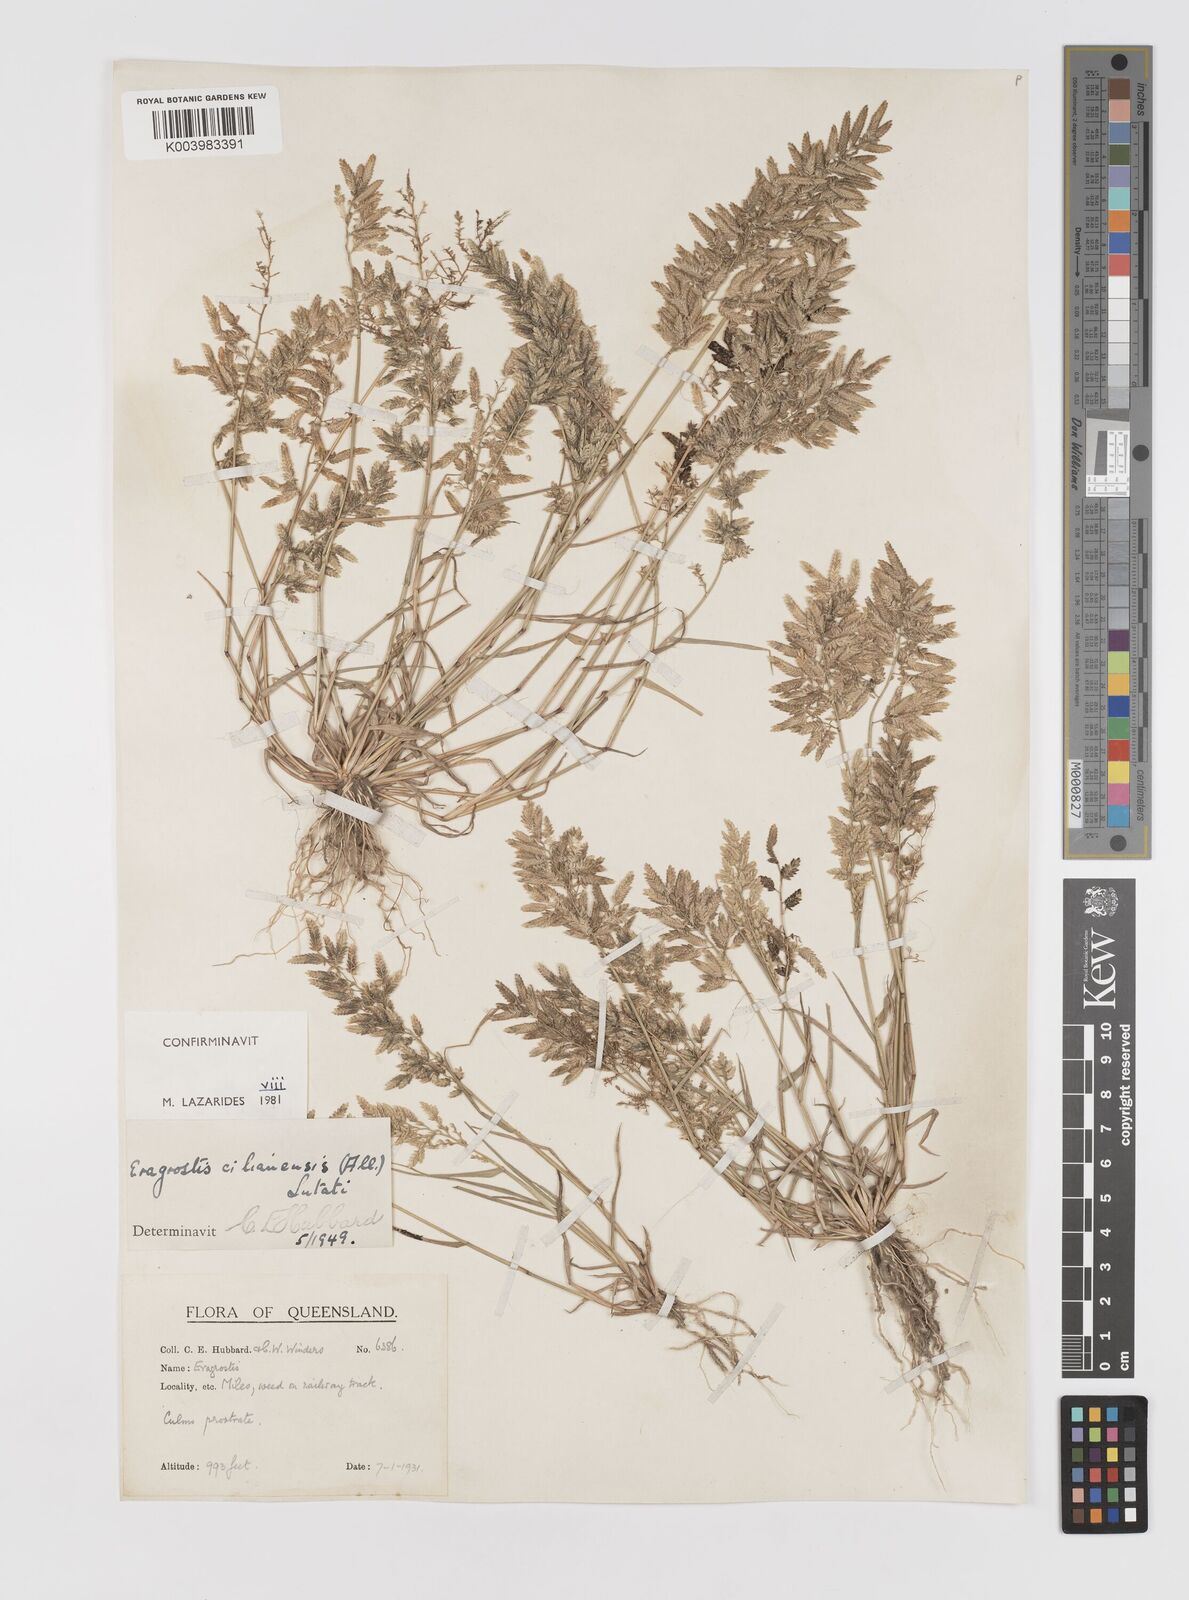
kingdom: Plantae
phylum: Tracheophyta
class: Liliopsida
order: Poales
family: Poaceae
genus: Eragrostis
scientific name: Eragrostis cilianensis
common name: Stinkgrass
